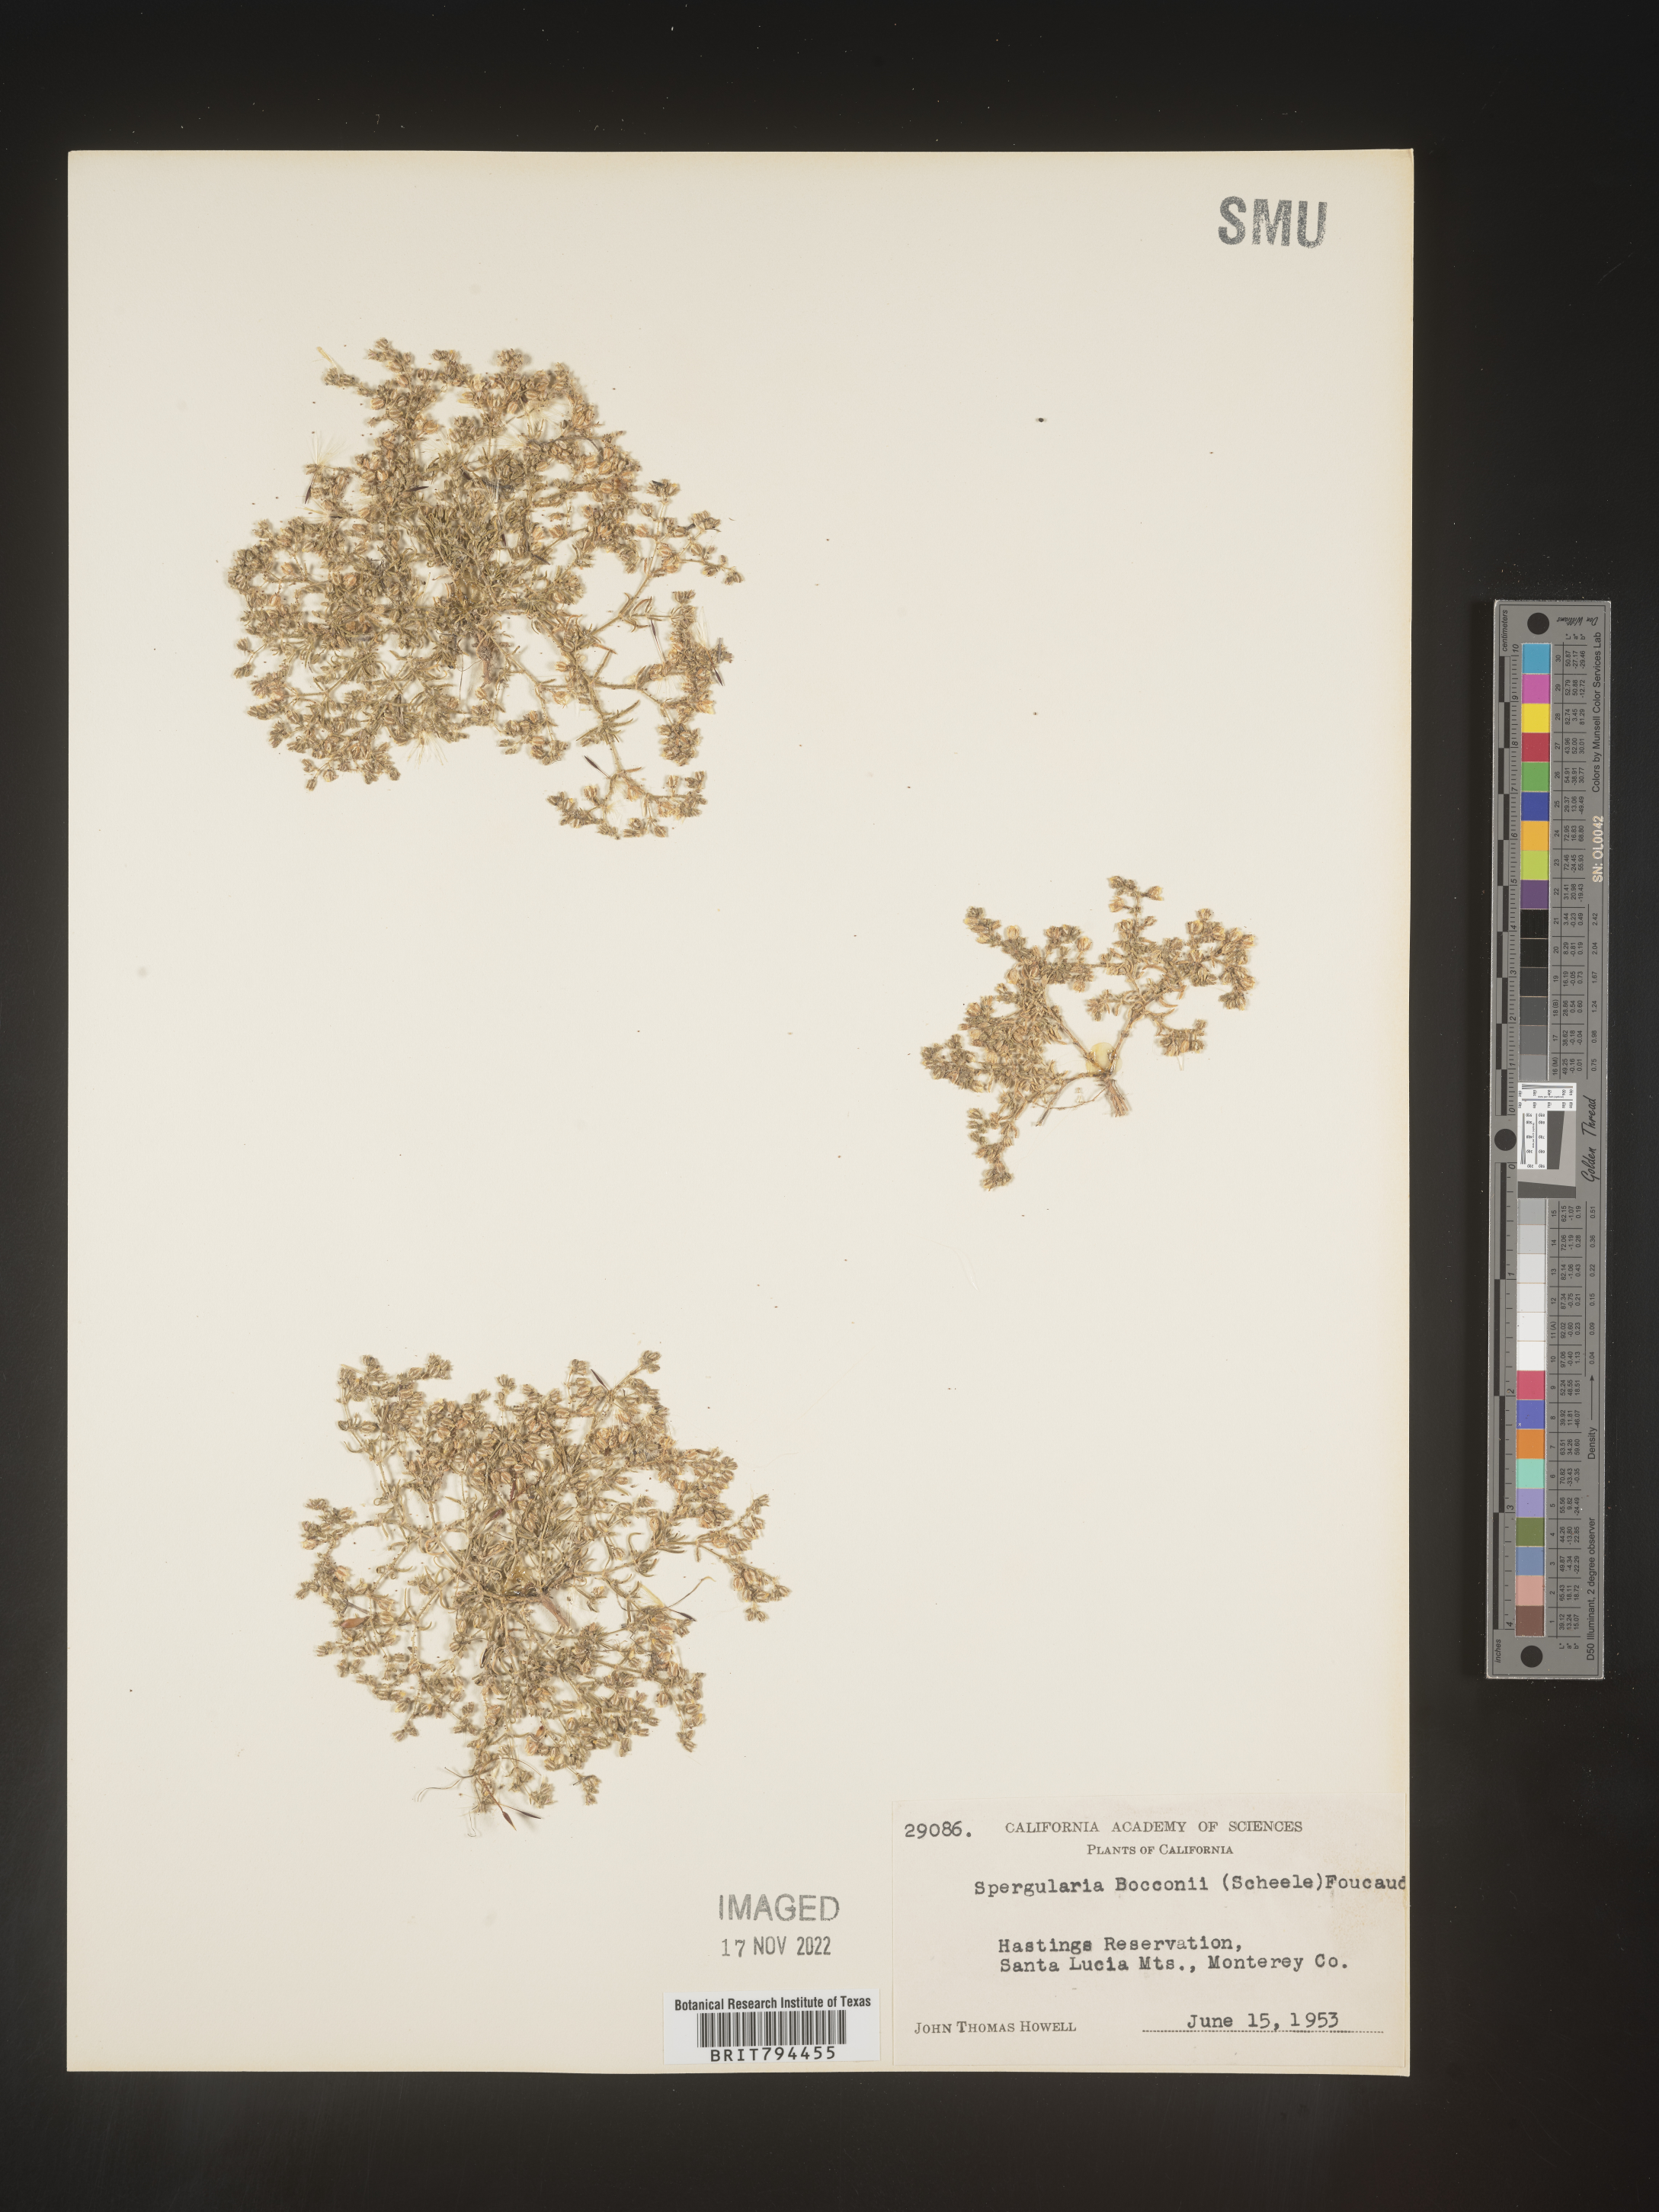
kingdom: Plantae
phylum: Tracheophyta
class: Magnoliopsida
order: Caryophyllales
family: Caryophyllaceae
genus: Spergularia
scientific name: Spergularia bocconei
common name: Greek sea-spurrey
